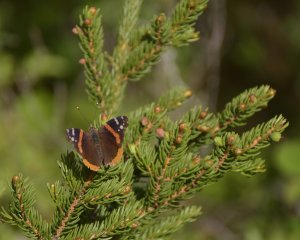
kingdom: Animalia
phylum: Arthropoda
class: Insecta
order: Lepidoptera
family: Nymphalidae
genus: Vanessa
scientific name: Vanessa atalanta
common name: Red Admiral
